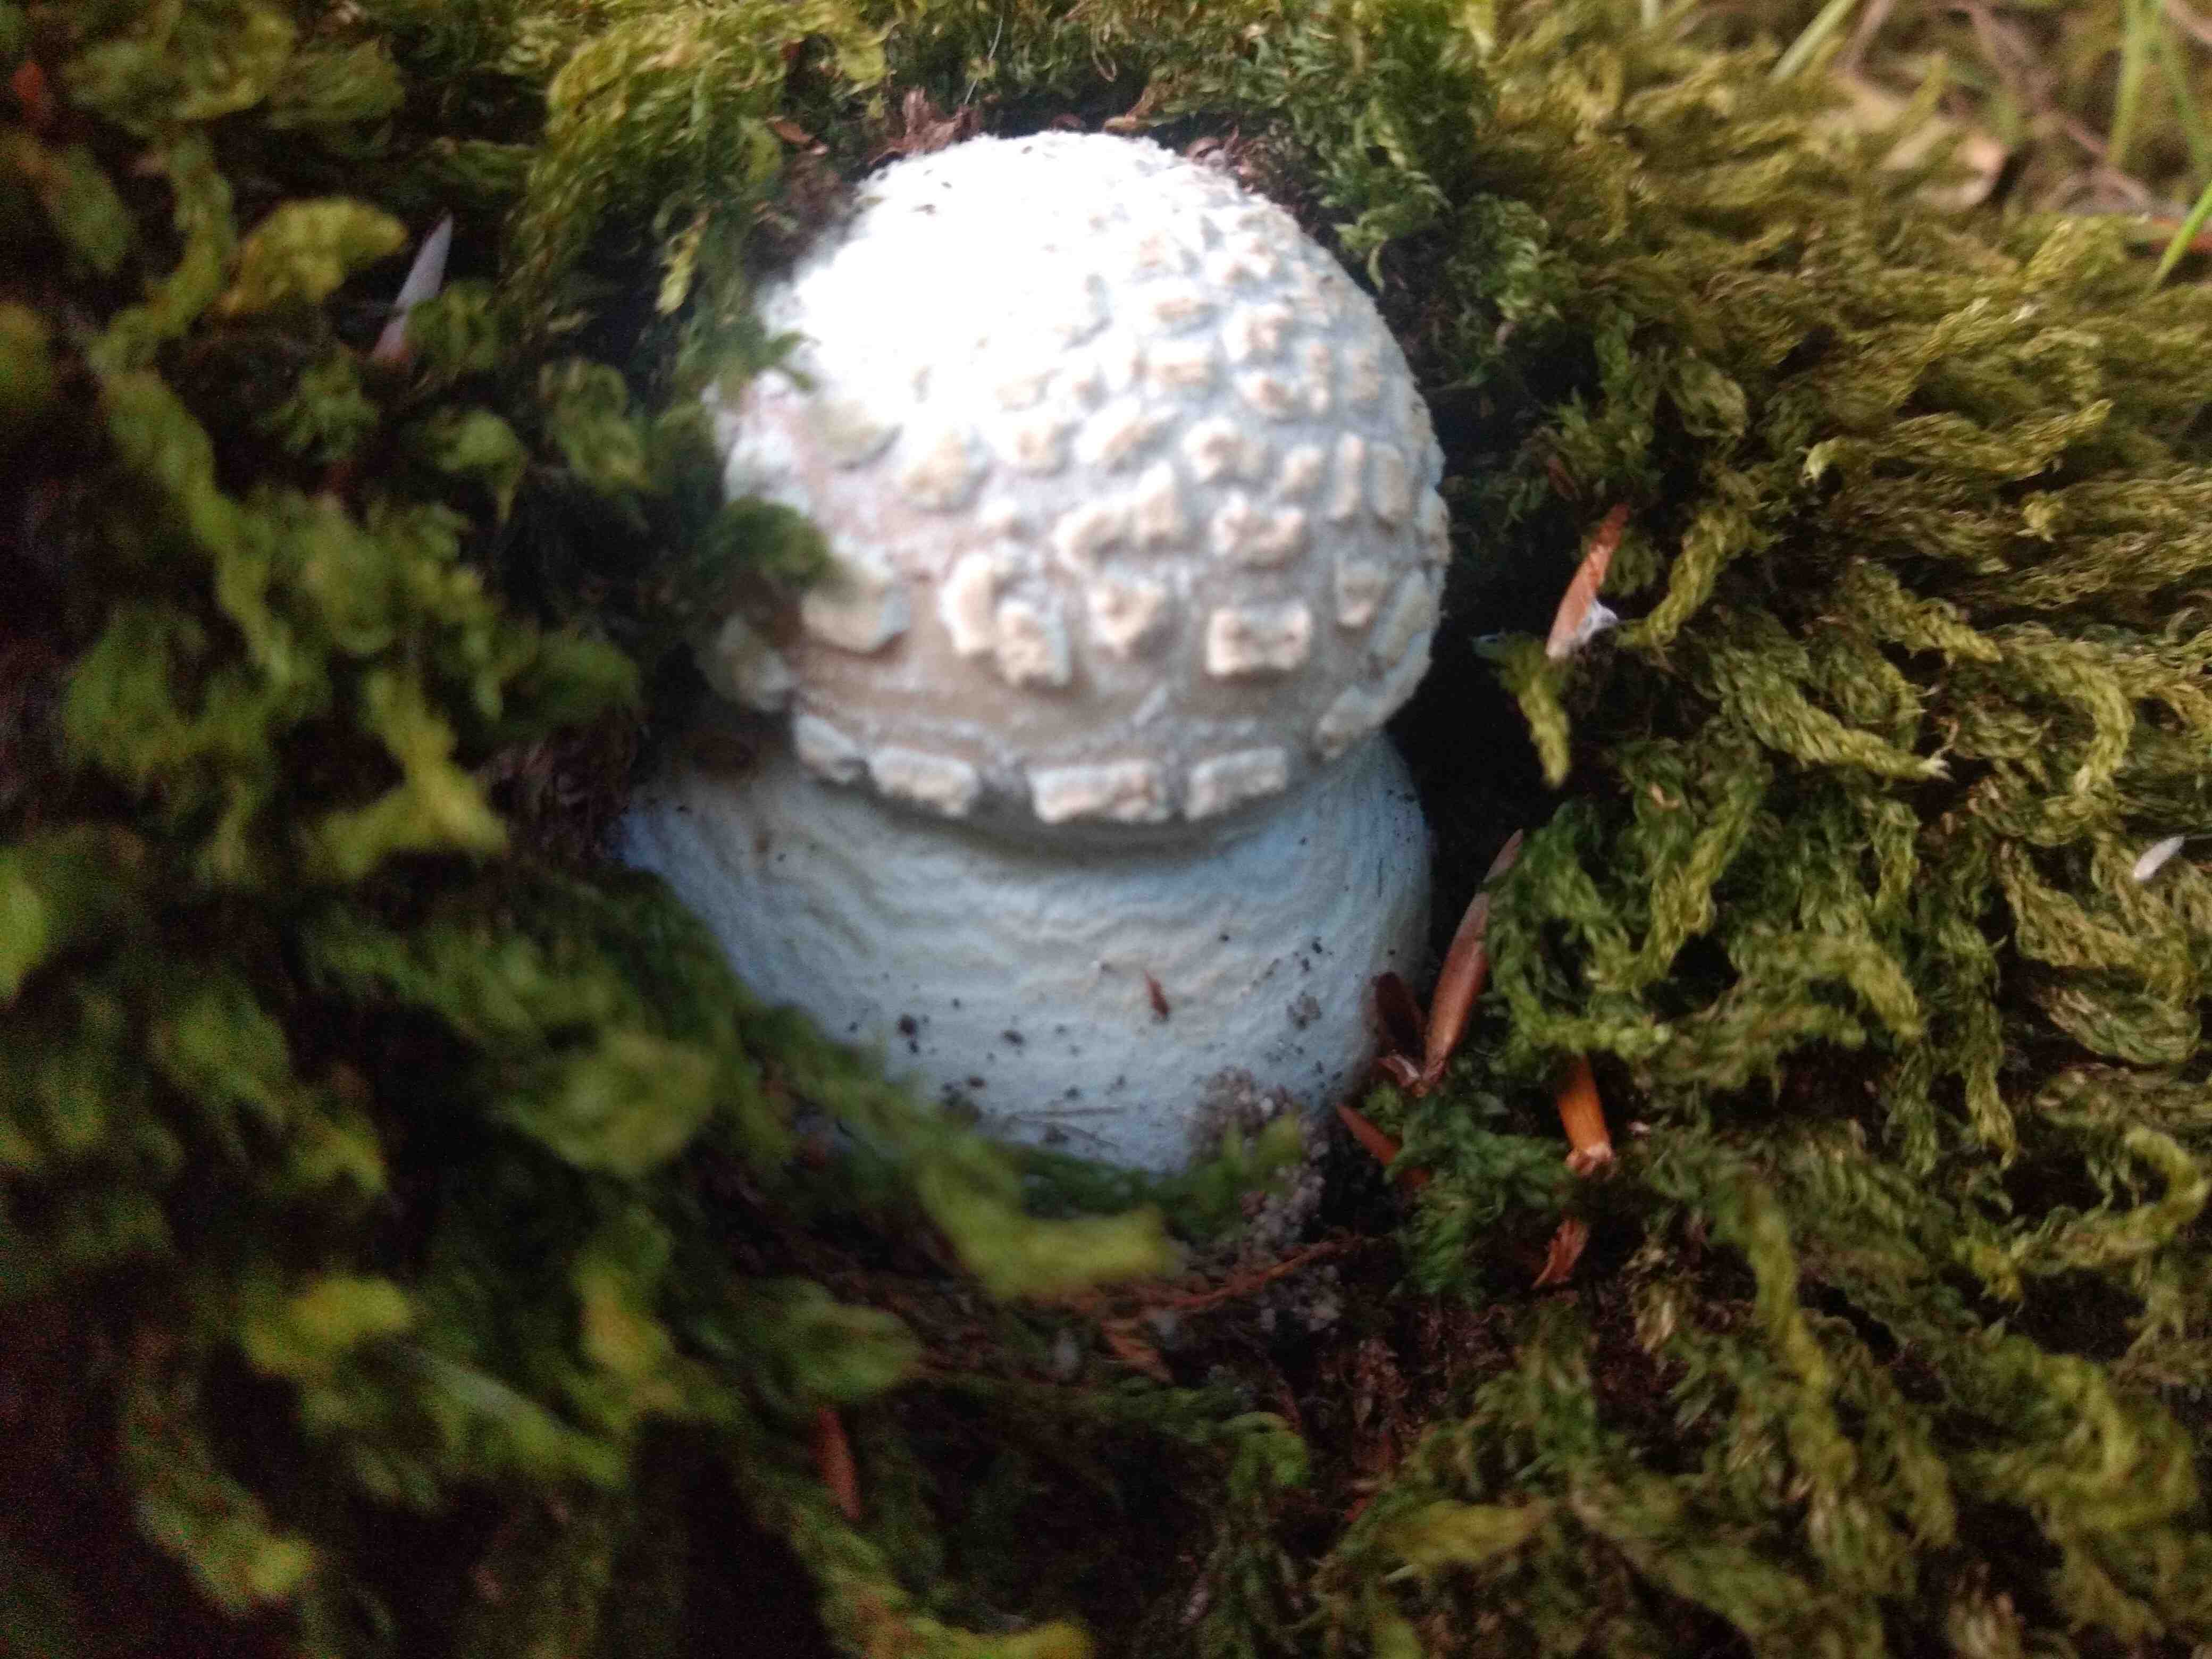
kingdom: Fungi
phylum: Basidiomycota
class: Agaricomycetes
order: Agaricales
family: Amanitaceae
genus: Amanita
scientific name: Amanita
